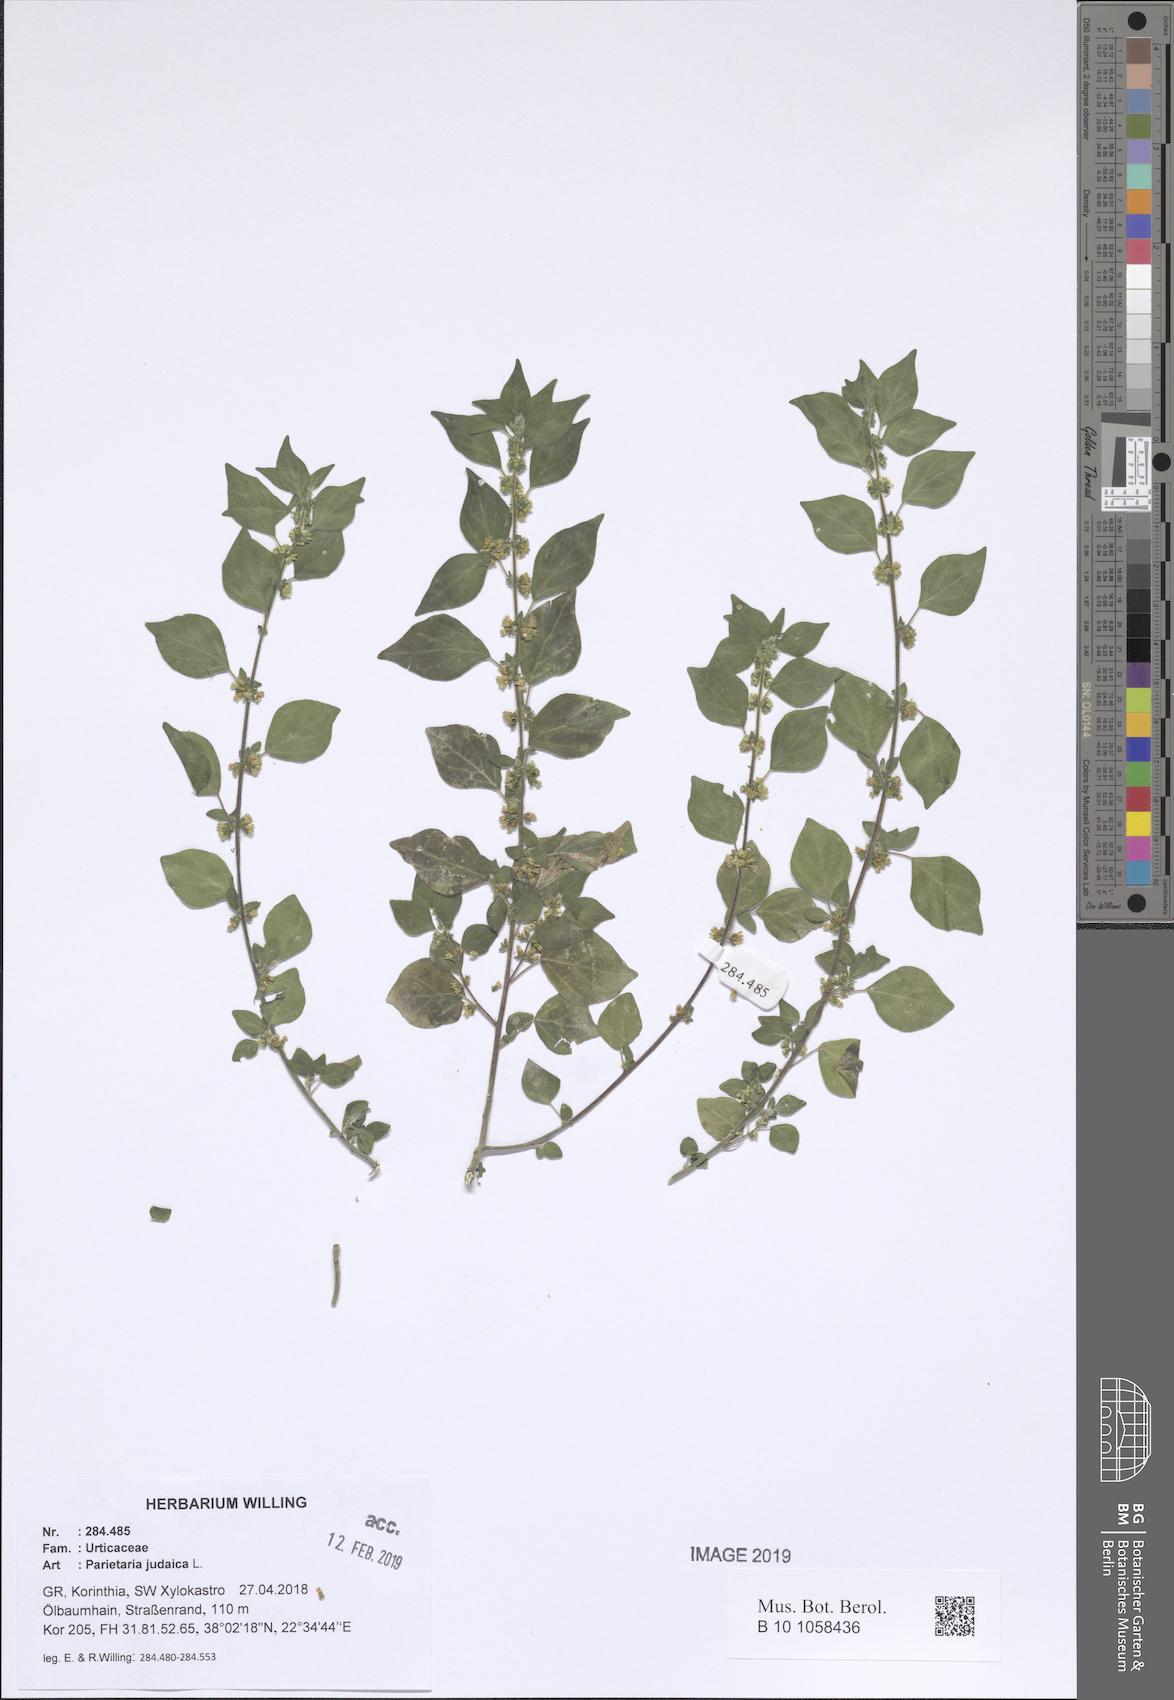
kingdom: Plantae
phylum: Tracheophyta
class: Magnoliopsida
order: Rosales
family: Urticaceae
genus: Parietaria
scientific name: Parietaria judaica
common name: Pellitory-of-the-wall
